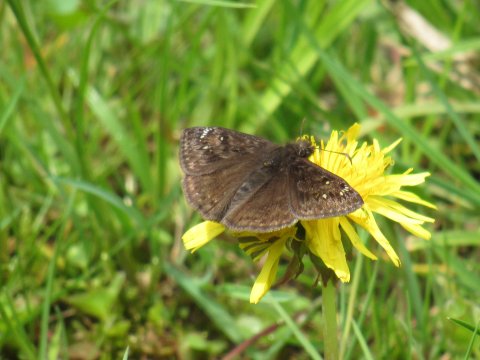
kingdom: Animalia
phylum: Arthropoda
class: Insecta
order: Lepidoptera
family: Hesperiidae
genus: Erynnis
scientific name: Erynnis
